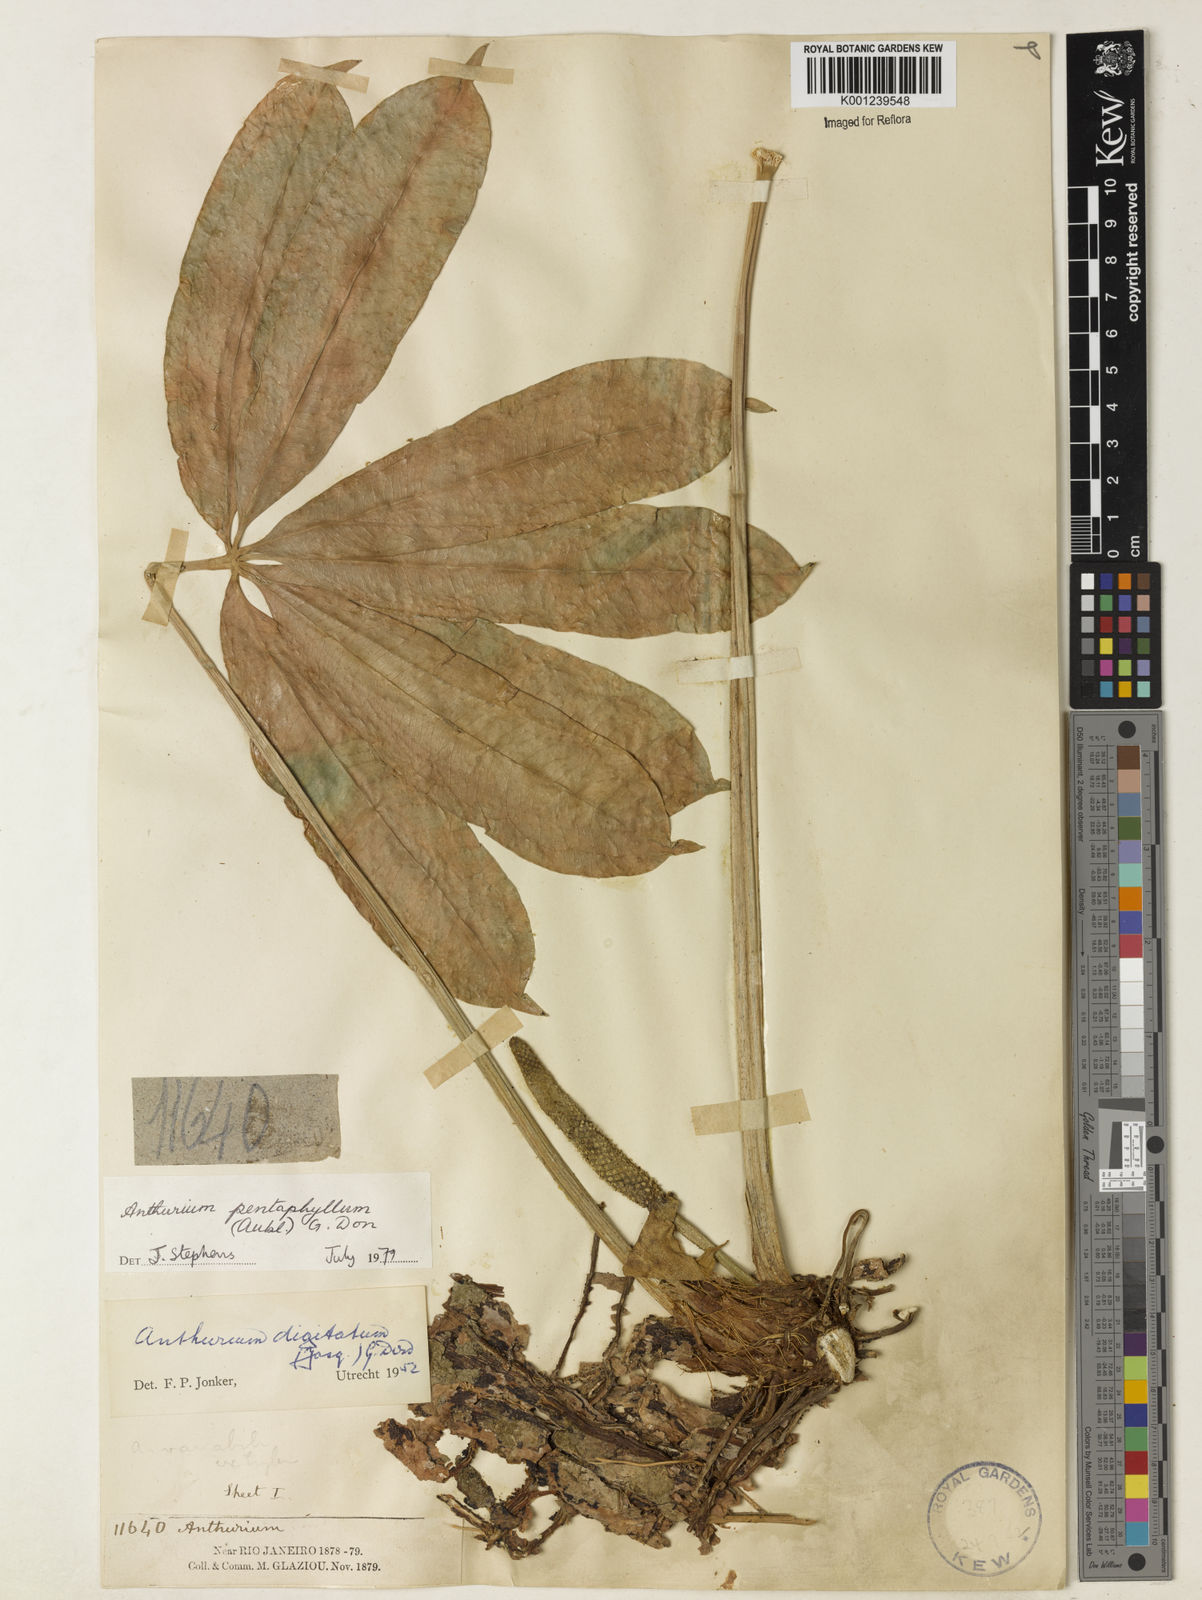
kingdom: Plantae
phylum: Tracheophyta
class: Liliopsida
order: Alismatales
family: Araceae
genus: Anthurium
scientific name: Anthurium pentaphyllum
